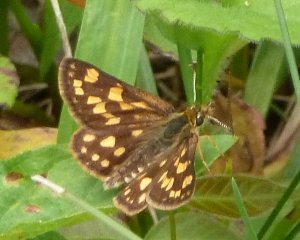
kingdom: Animalia
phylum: Arthropoda
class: Insecta
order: Lepidoptera
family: Hesperiidae
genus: Carterocephalus
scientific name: Carterocephalus palaemon
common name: Chequered Skipper
